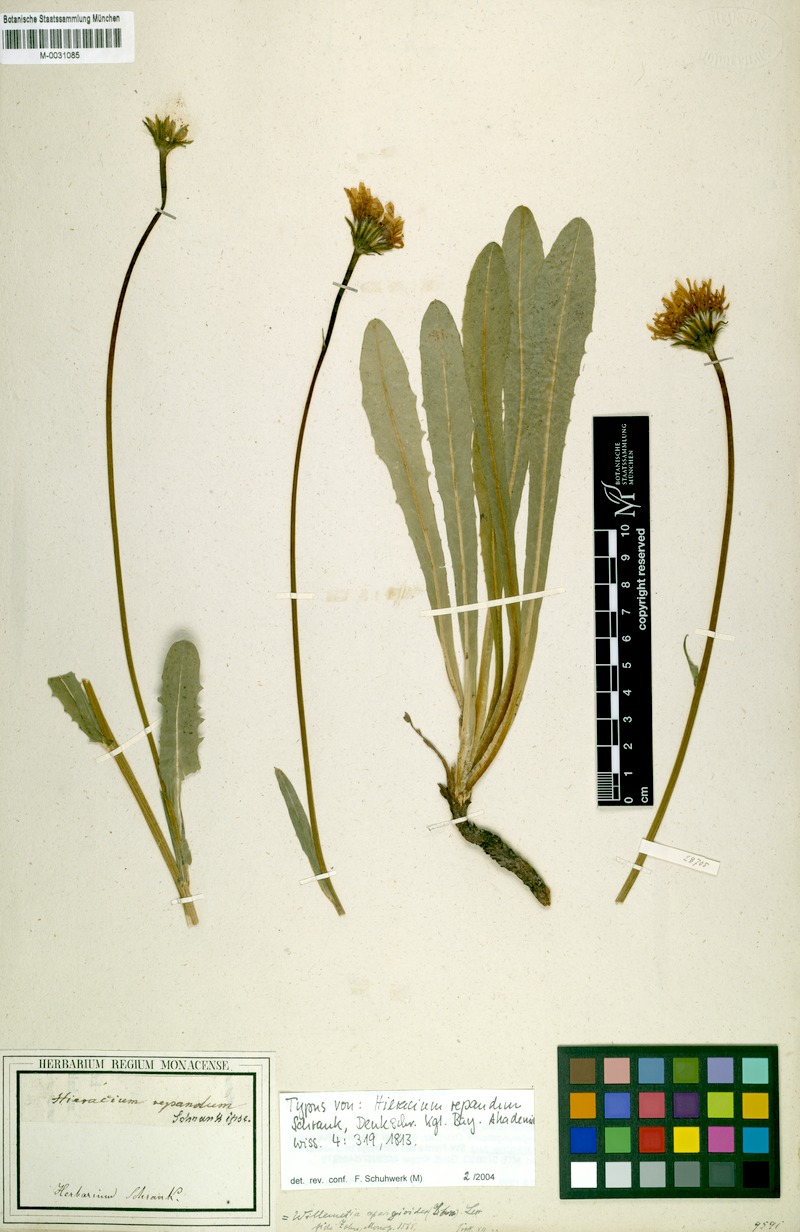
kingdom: Plantae
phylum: Tracheophyta
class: Magnoliopsida
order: Asterales
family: Asteraceae
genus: Willemetia
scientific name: Willemetia stipitata
